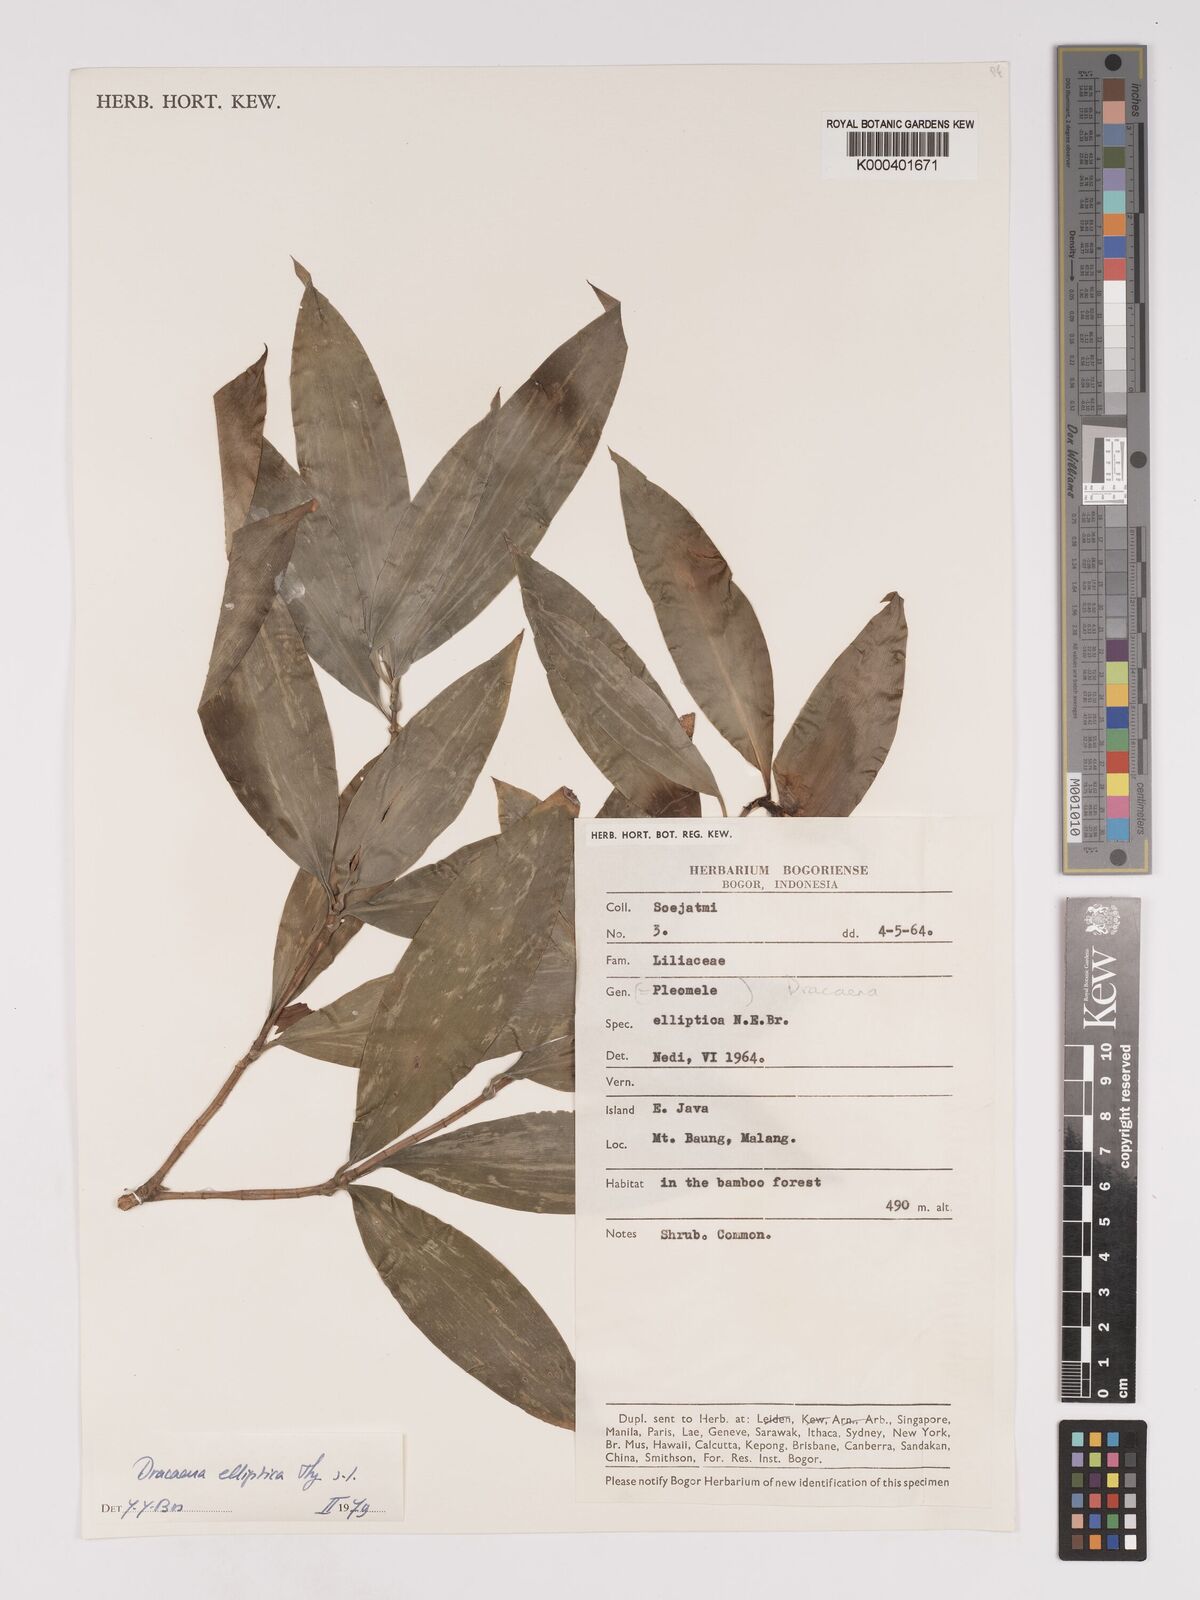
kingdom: Plantae
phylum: Tracheophyta
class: Liliopsida
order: Asparagales
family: Asparagaceae
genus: Dracaena
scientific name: Dracaena elliptica
